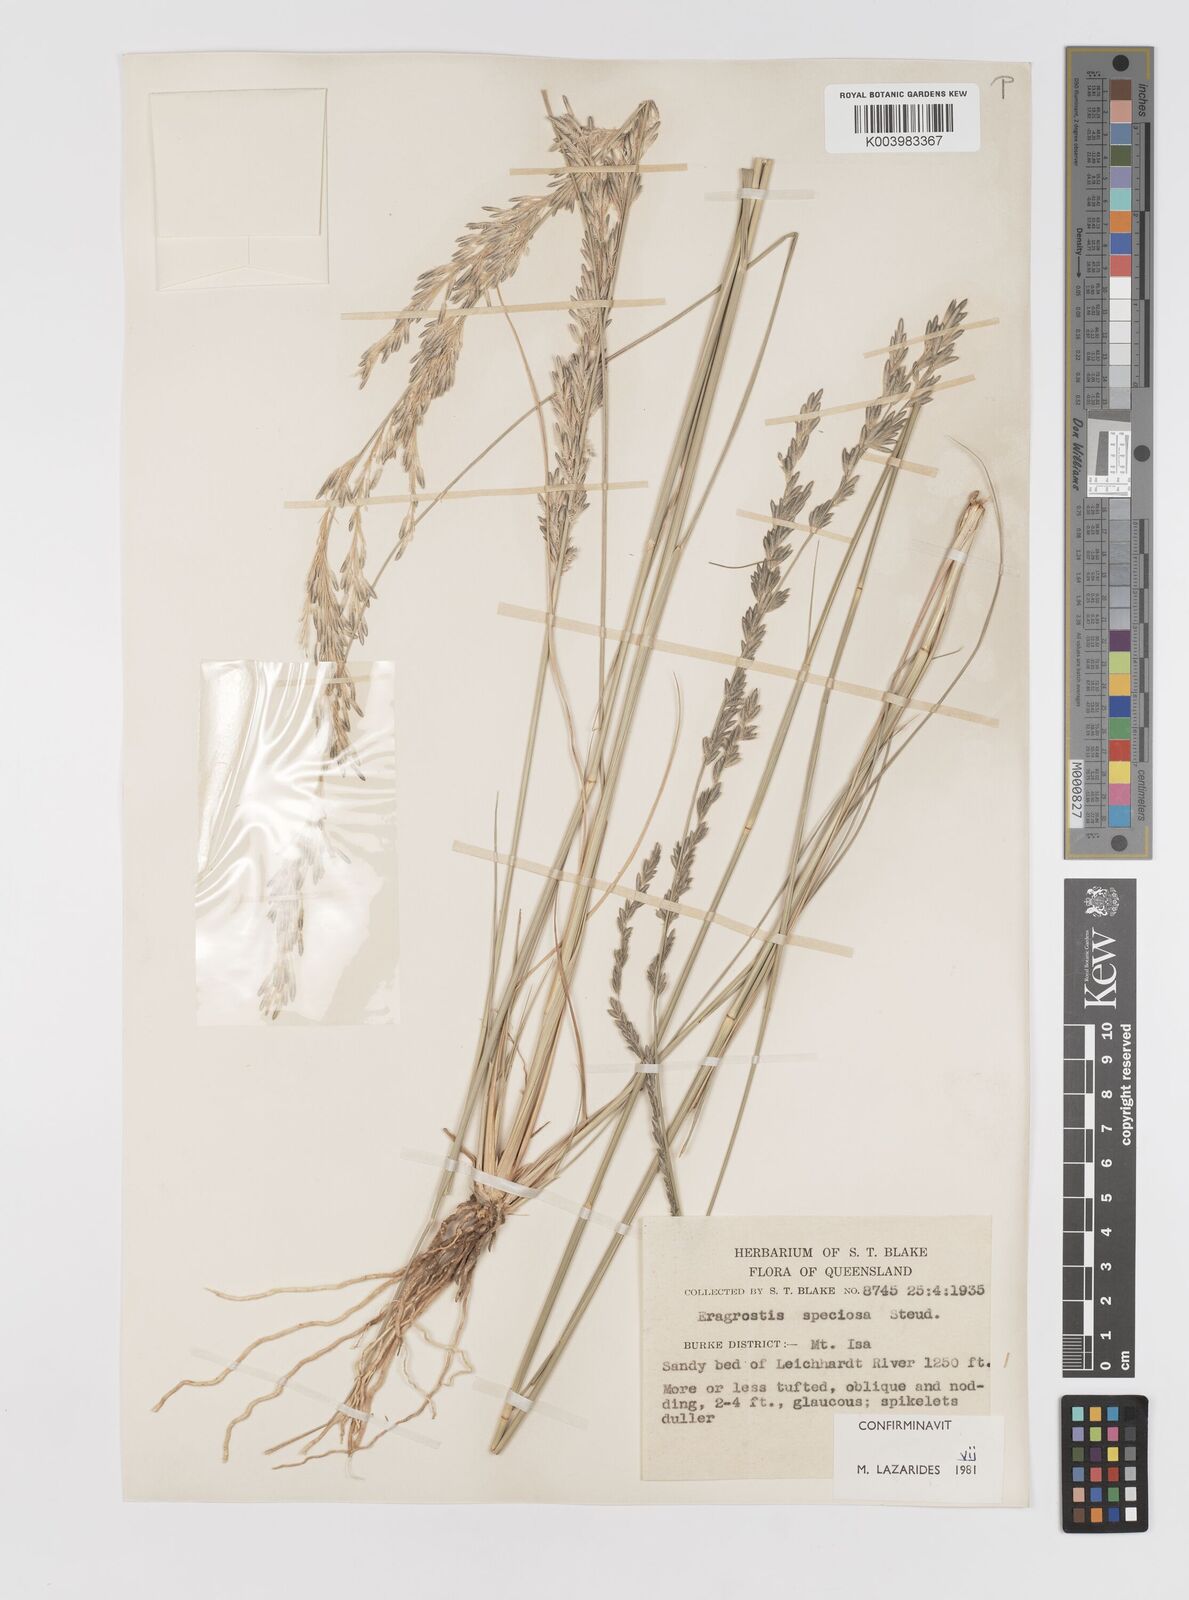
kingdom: Plantae
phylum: Tracheophyta
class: Liliopsida
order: Poales
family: Poaceae
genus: Eragrostis
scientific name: Eragrostis speciosa
